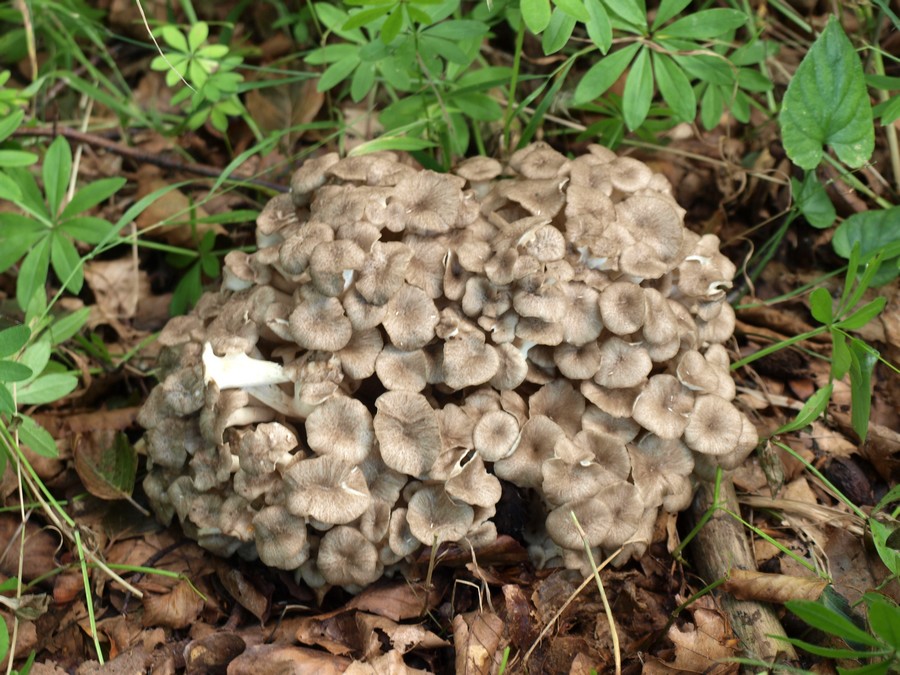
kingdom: Fungi
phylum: Basidiomycota
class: Agaricomycetes
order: Polyporales
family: Polyporaceae
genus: Polyporus
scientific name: Polyporus umbellatus
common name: skærmformet stilkporesvamp
